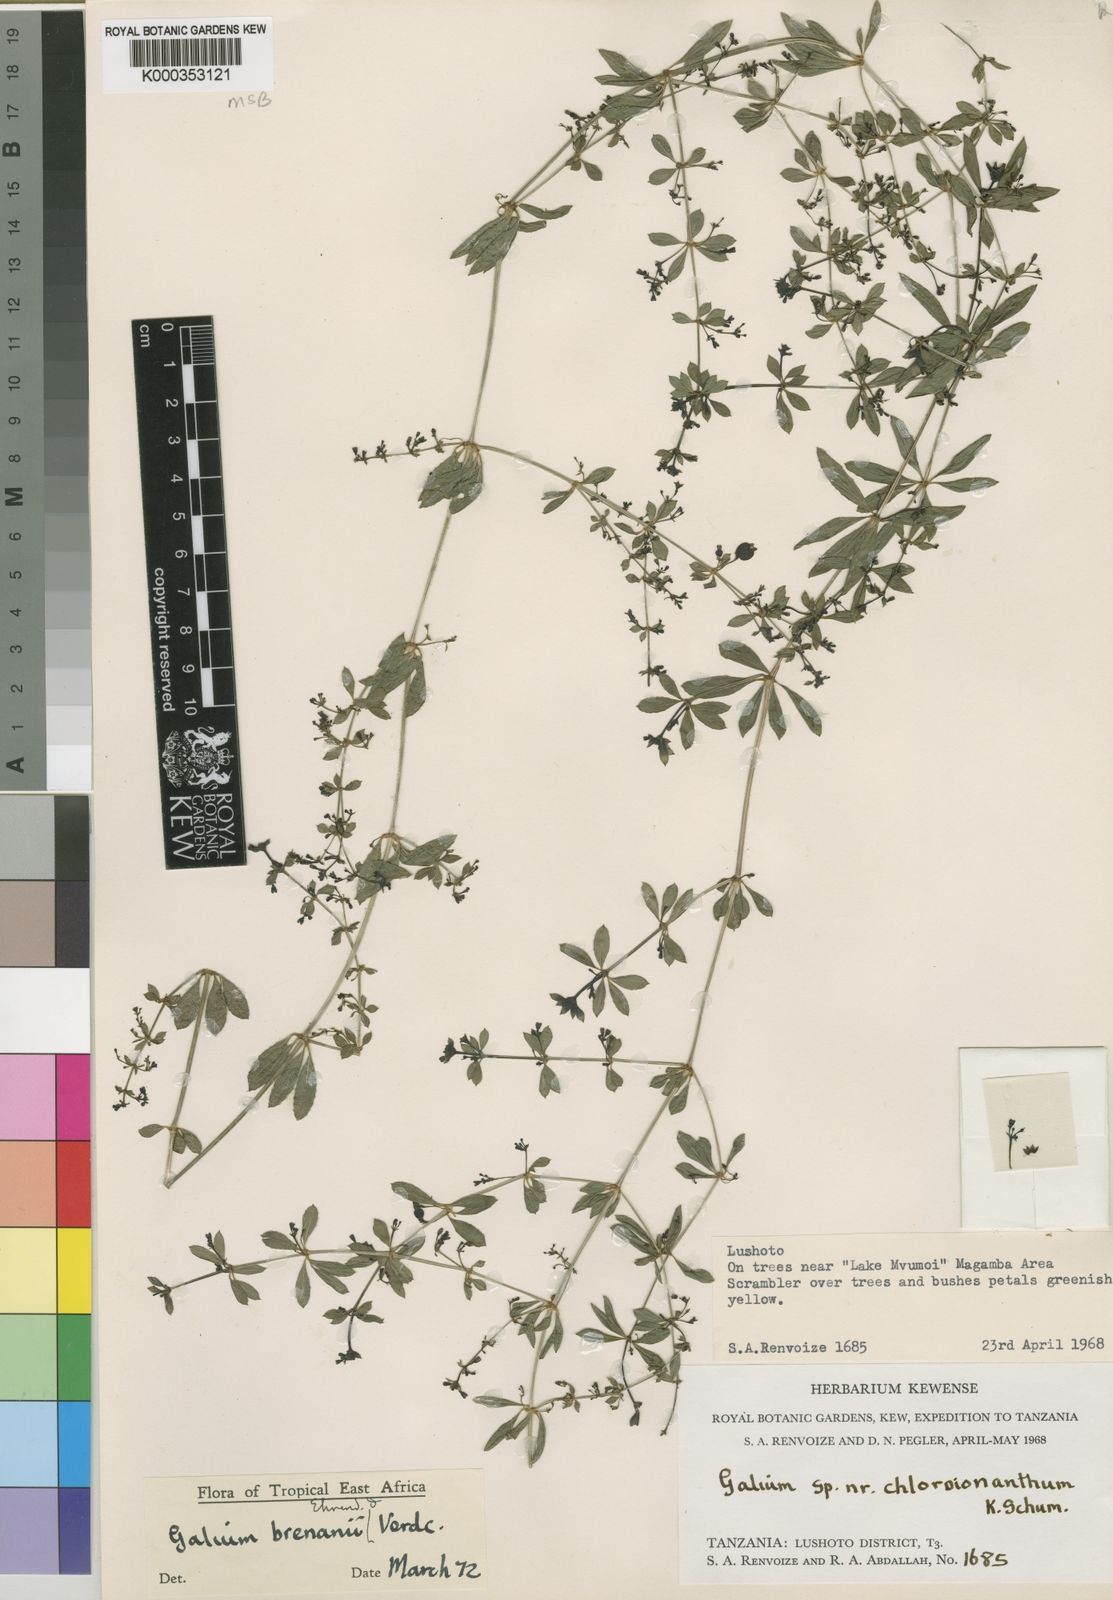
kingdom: Plantae
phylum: Tracheophyta
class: Magnoliopsida
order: Gentianales
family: Rubiaceae
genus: Galium
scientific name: Galium brenanii
